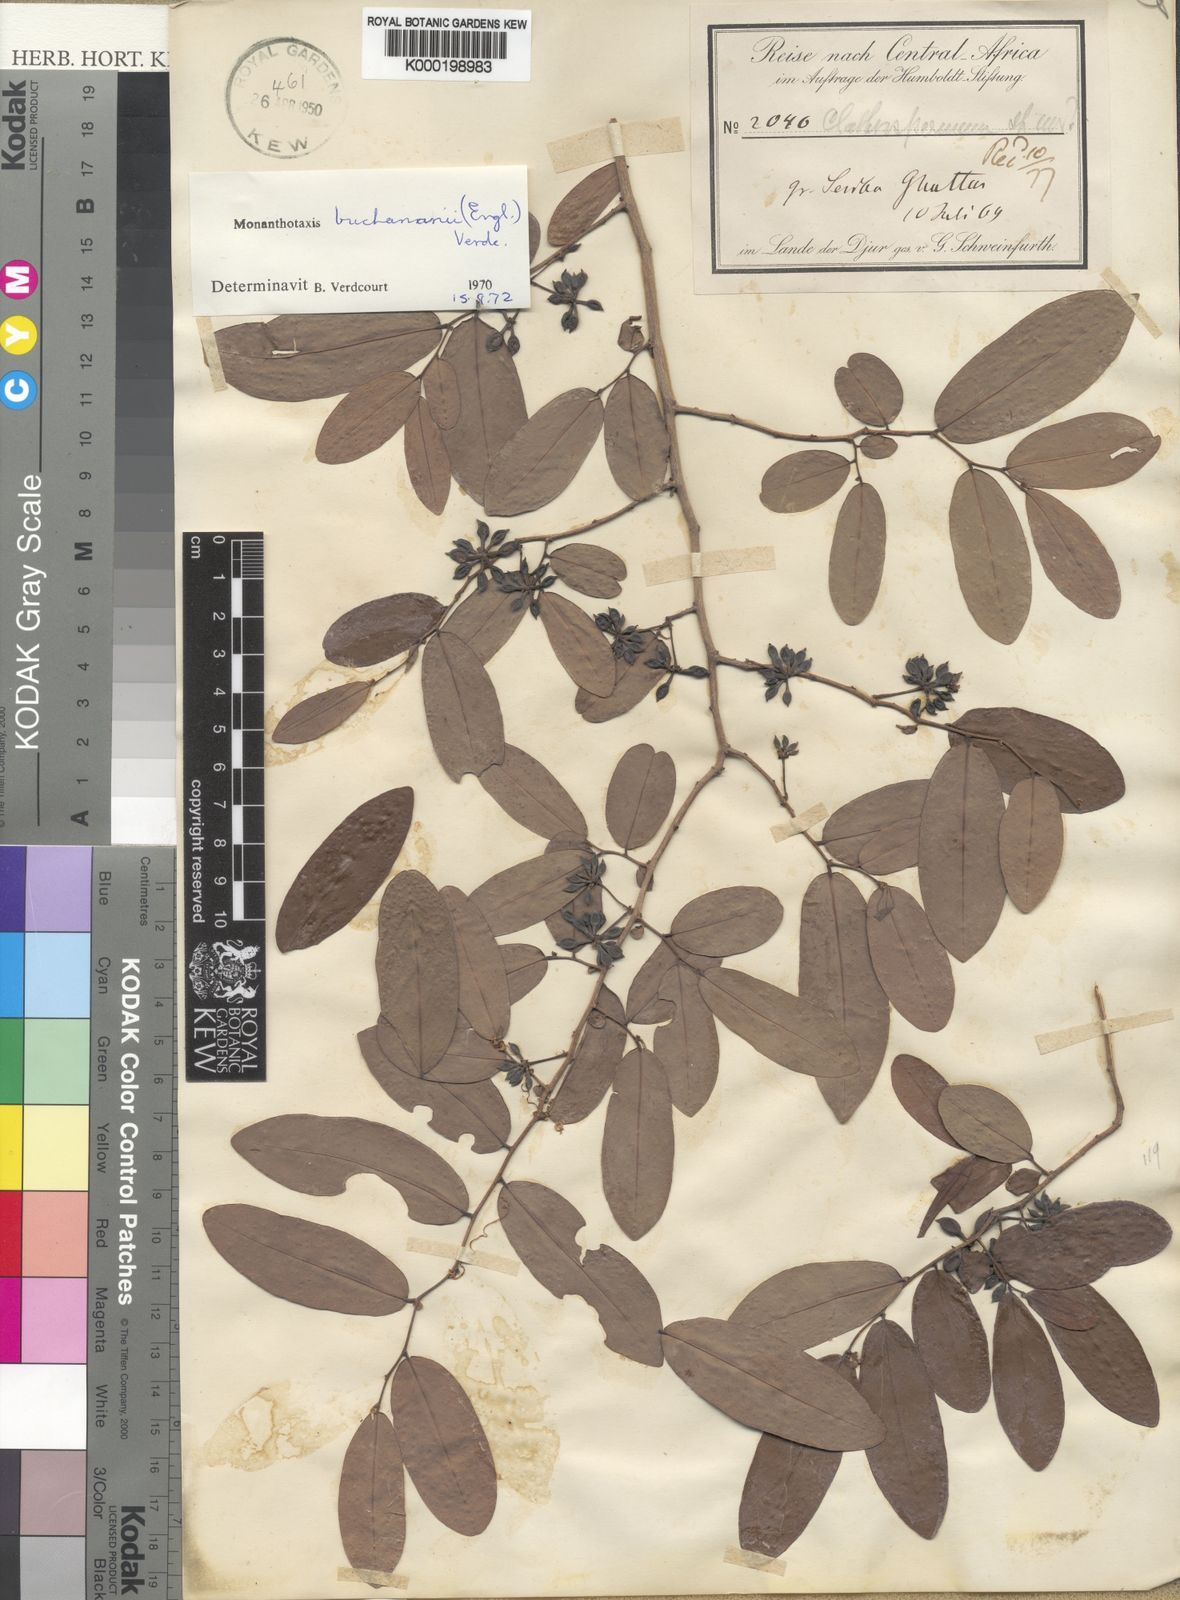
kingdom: Plantae
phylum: Tracheophyta
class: Magnoliopsida
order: Magnoliales
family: Annonaceae
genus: Monanthotaxis
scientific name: Monanthotaxis buchananii
